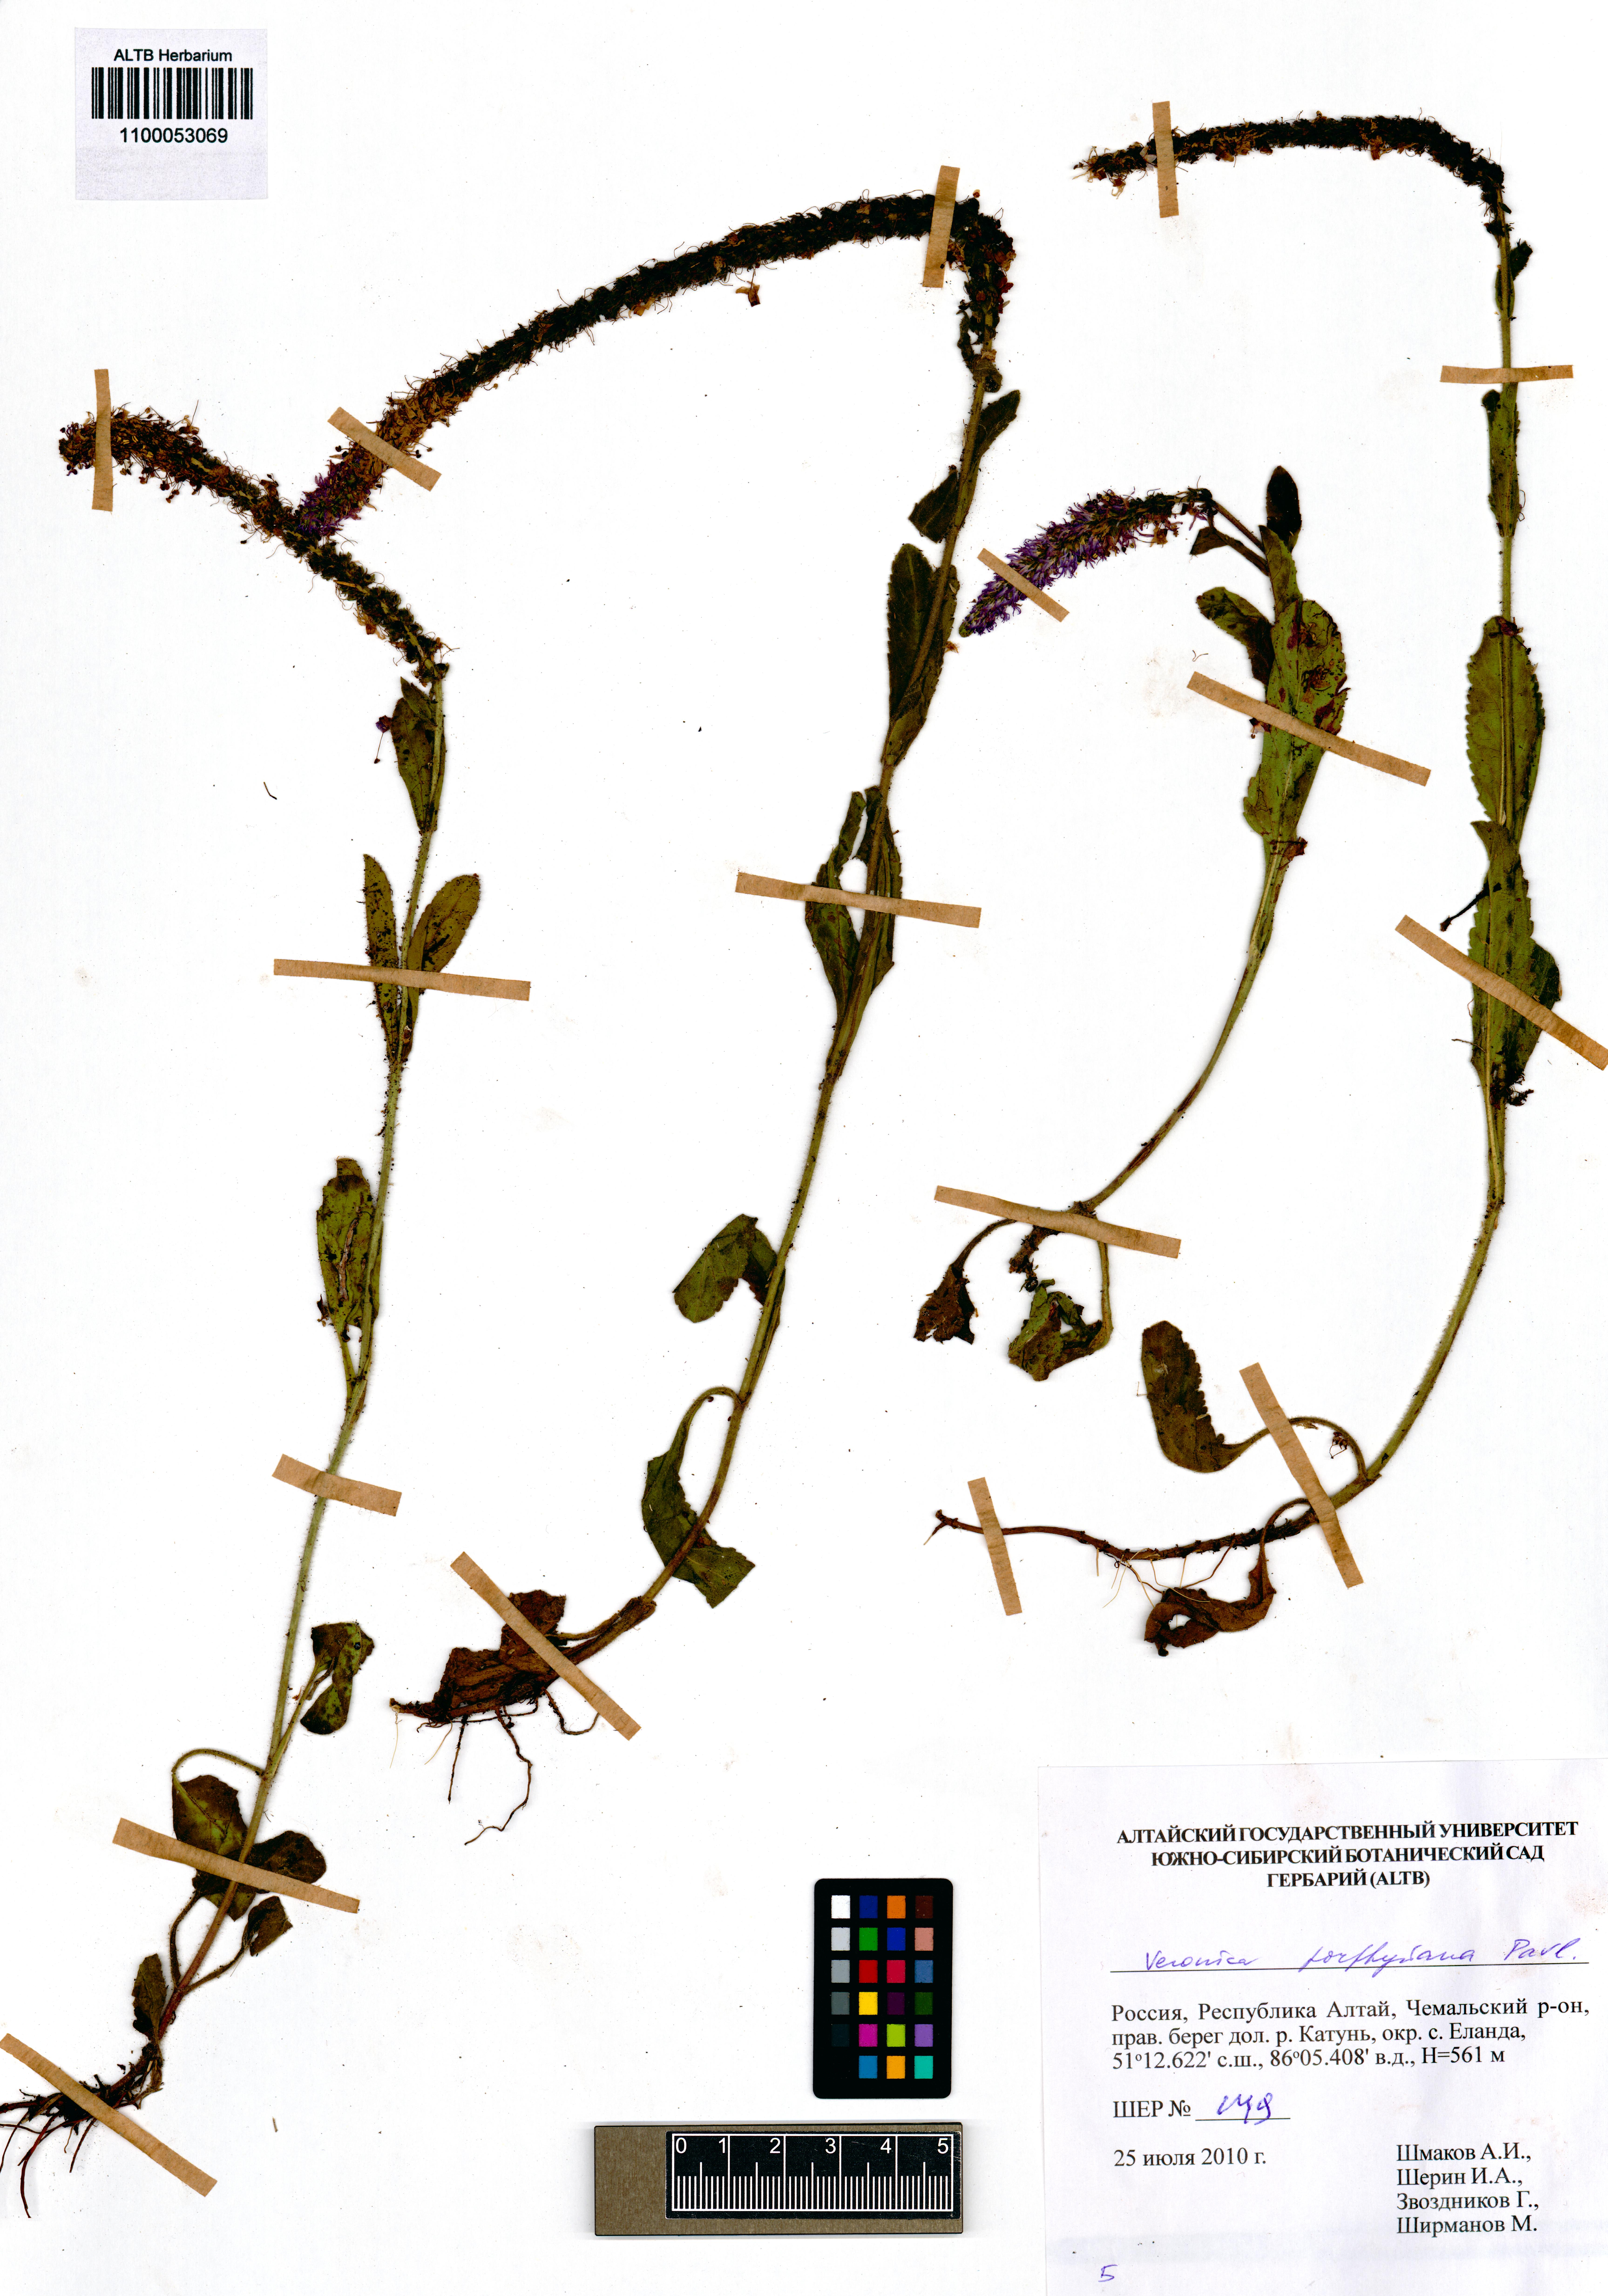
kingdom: Plantae
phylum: Tracheophyta
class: Magnoliopsida
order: Lamiales
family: Plantaginaceae
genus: Veronica
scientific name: Veronica porphyriana
